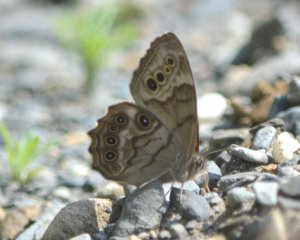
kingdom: Animalia
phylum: Arthropoda
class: Insecta
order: Lepidoptera
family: Nymphalidae
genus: Lethe
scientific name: Lethe anthedon
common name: Northern Pearly-Eye
